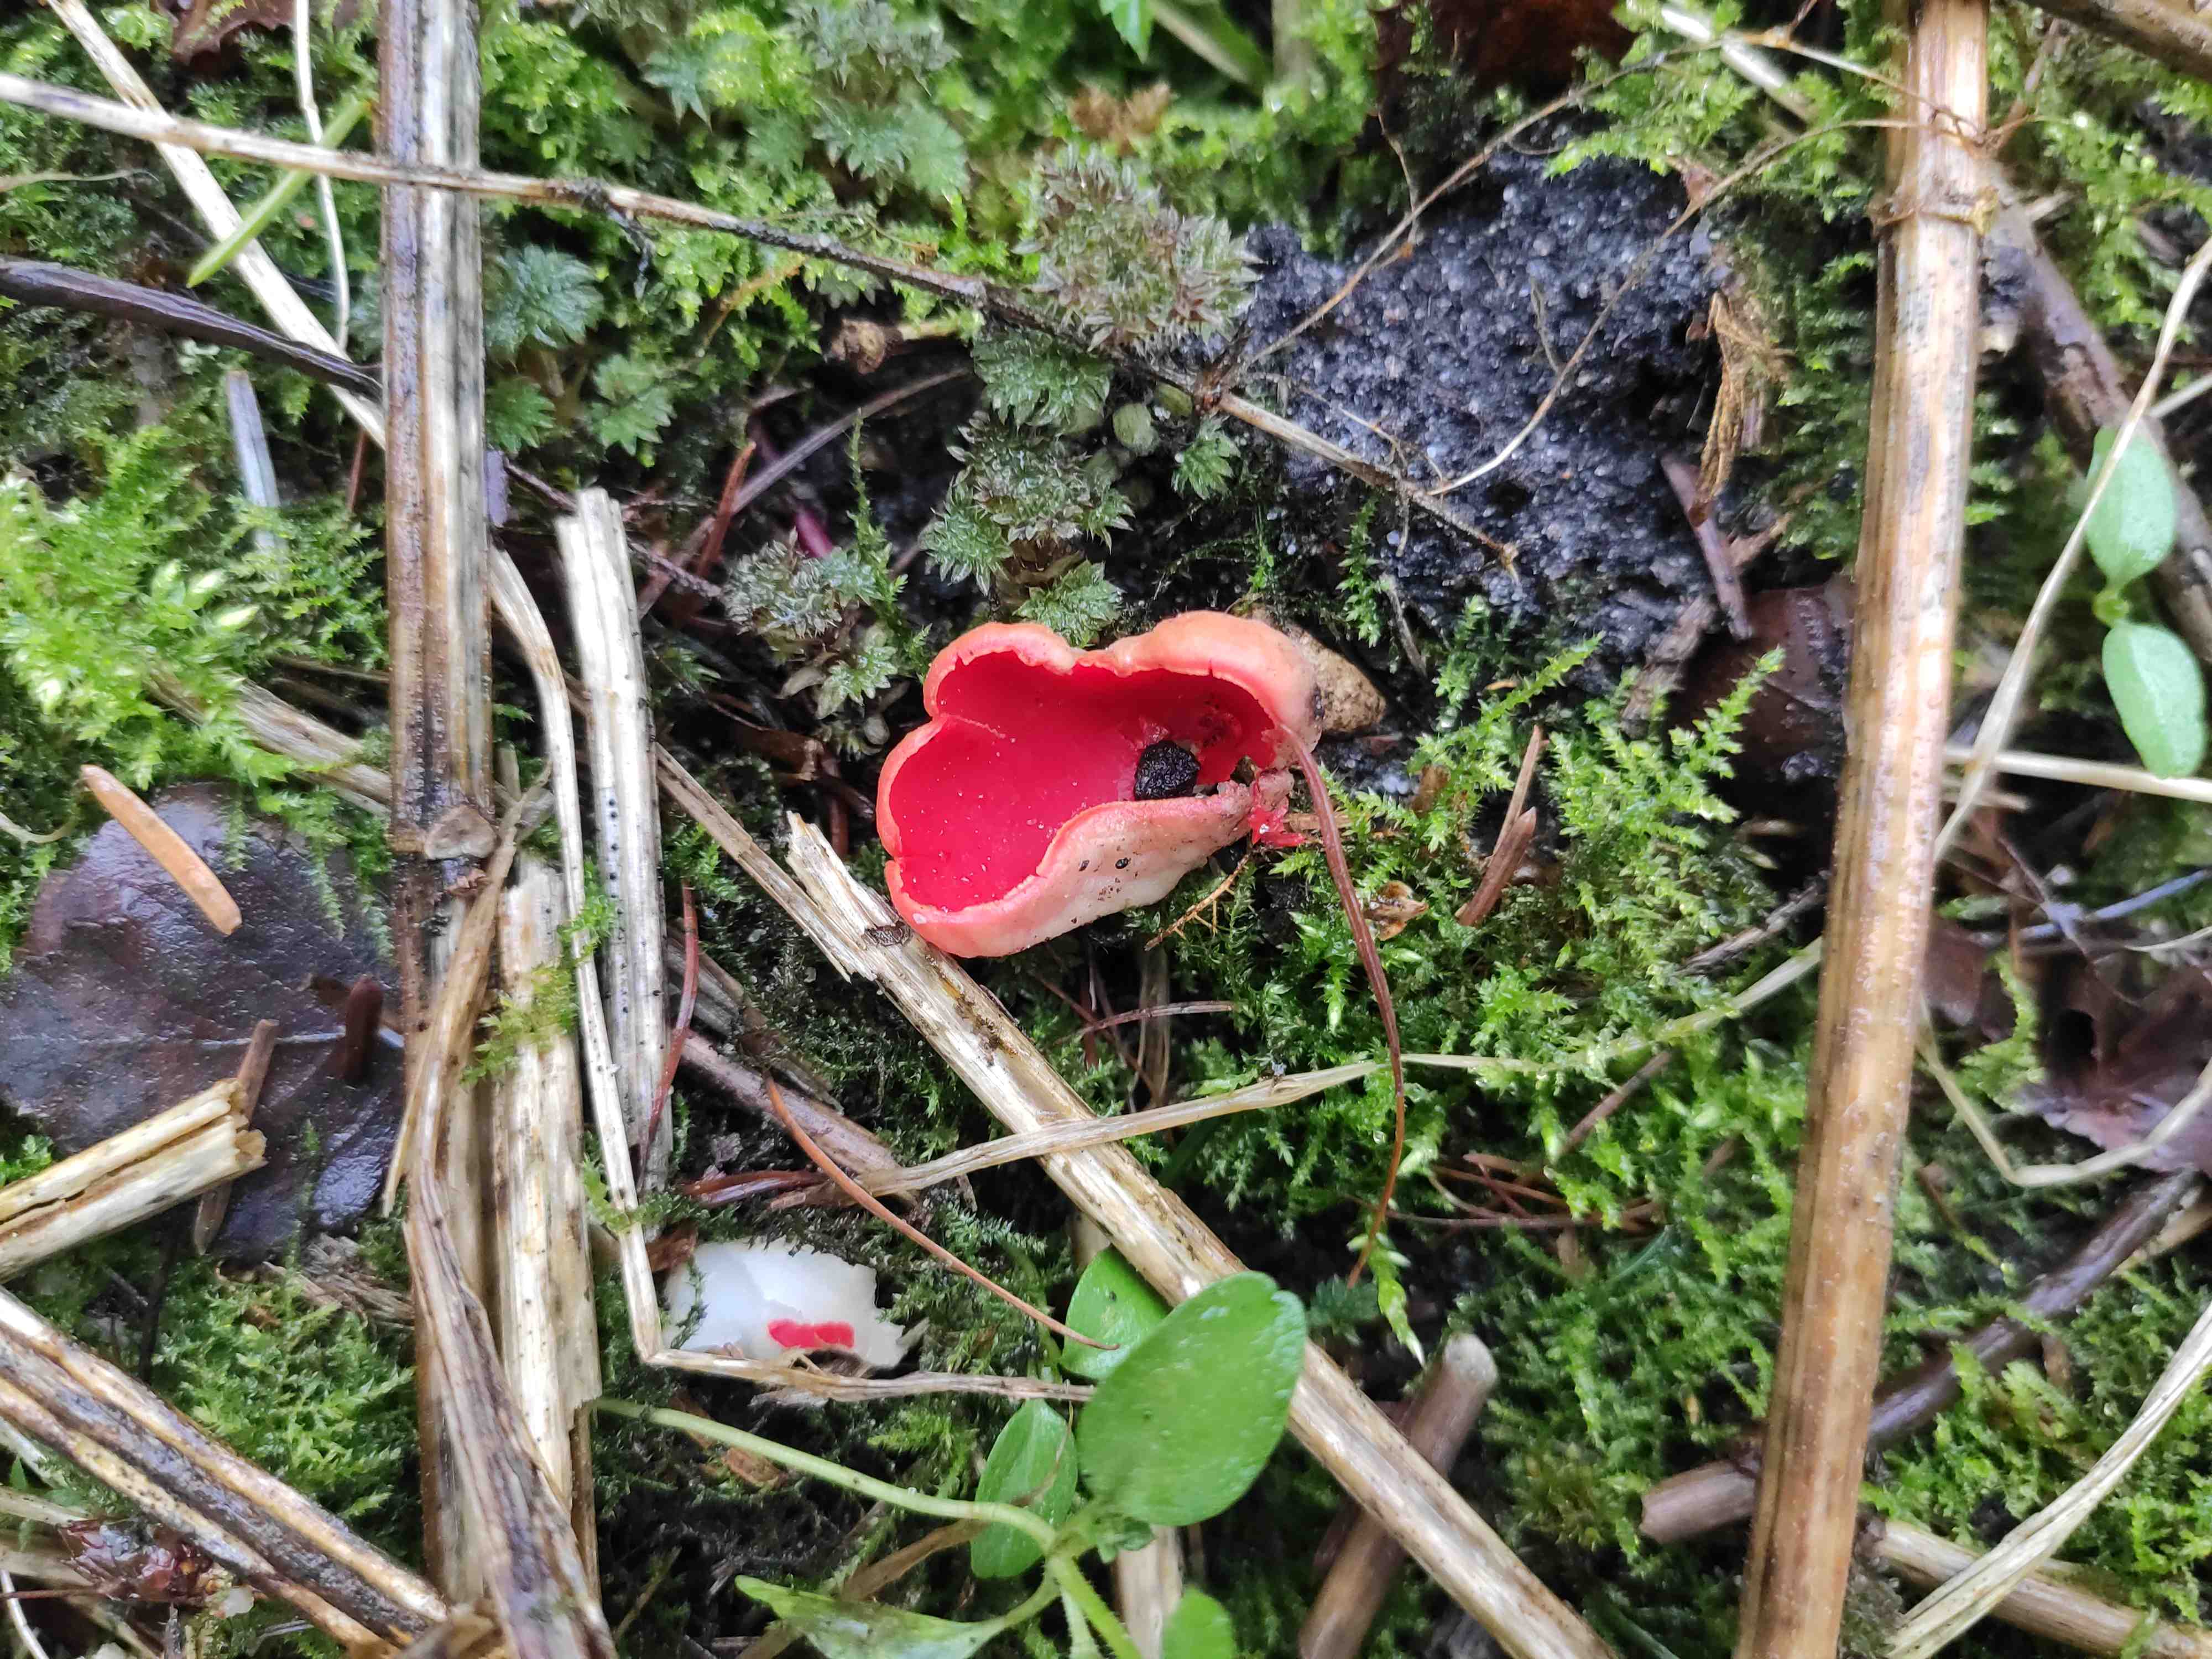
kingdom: Fungi
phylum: Ascomycota
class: Pezizomycetes
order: Pezizales
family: Sarcoscyphaceae
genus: Sarcoscypha
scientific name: Sarcoscypha austriaca
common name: krølhåret pragtbæger
